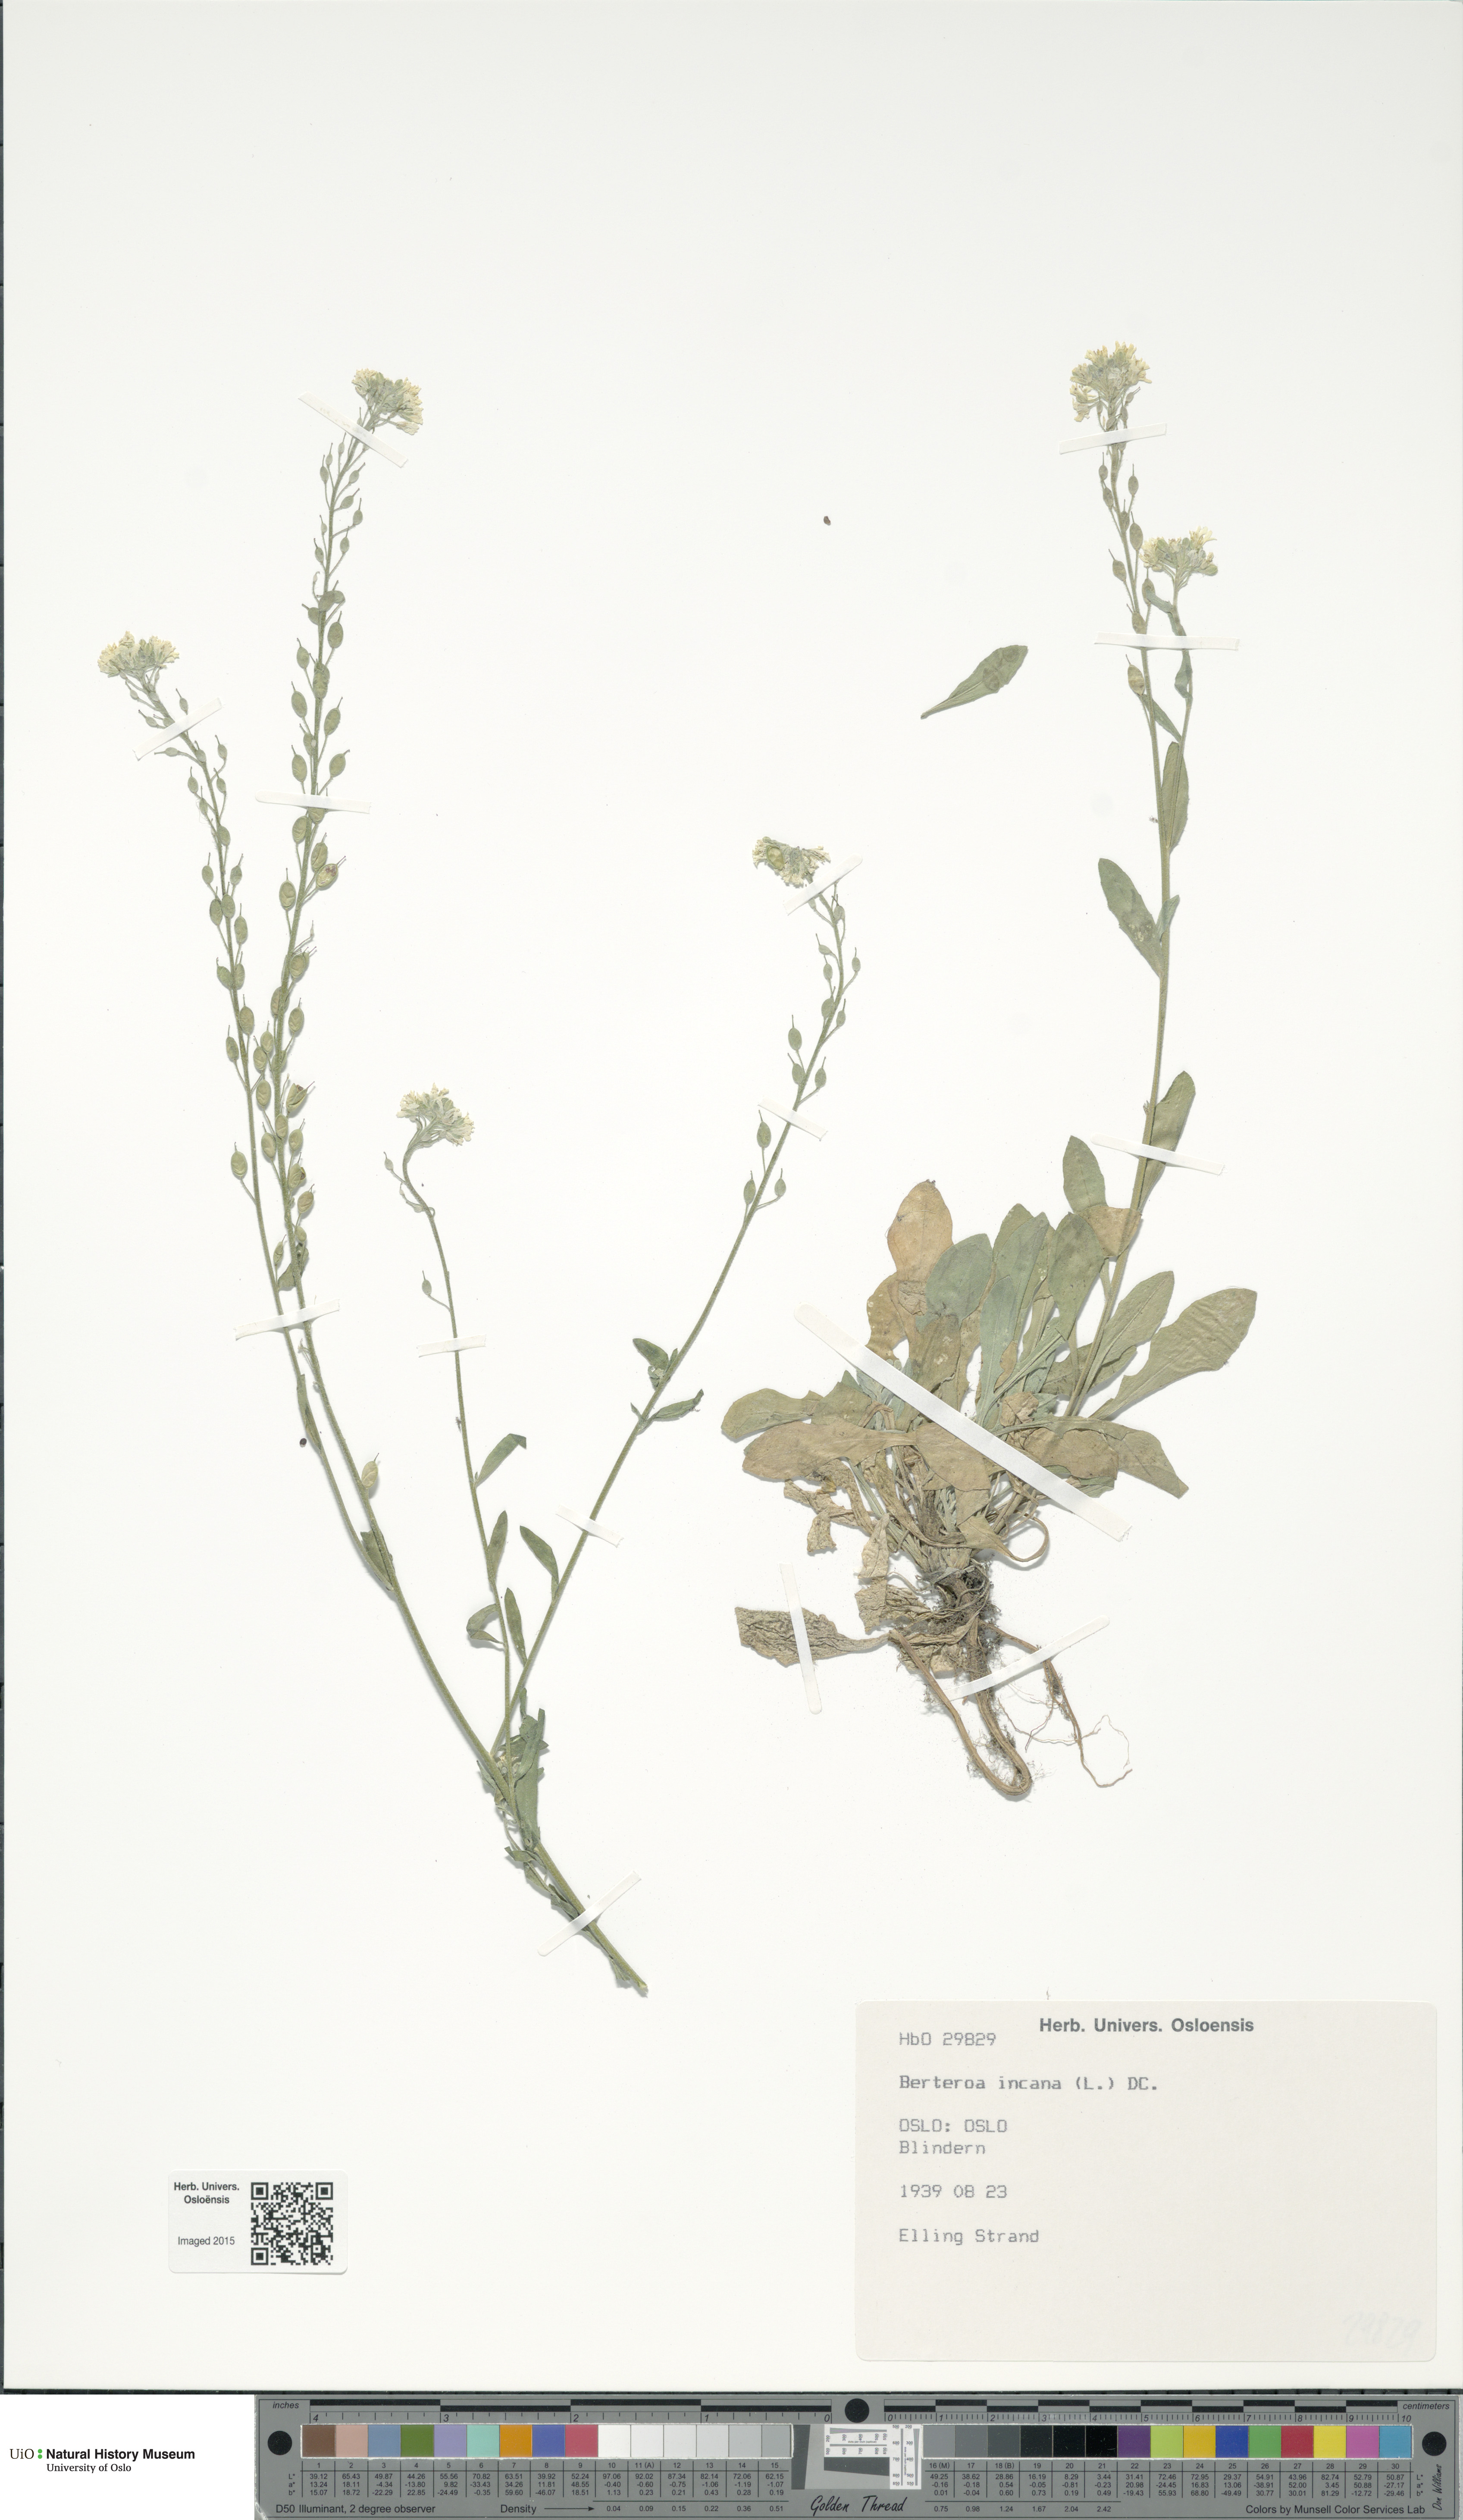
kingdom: Plantae
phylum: Tracheophyta
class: Magnoliopsida
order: Brassicales
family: Brassicaceae
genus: Berteroa
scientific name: Berteroa incana
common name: Hoary alison
